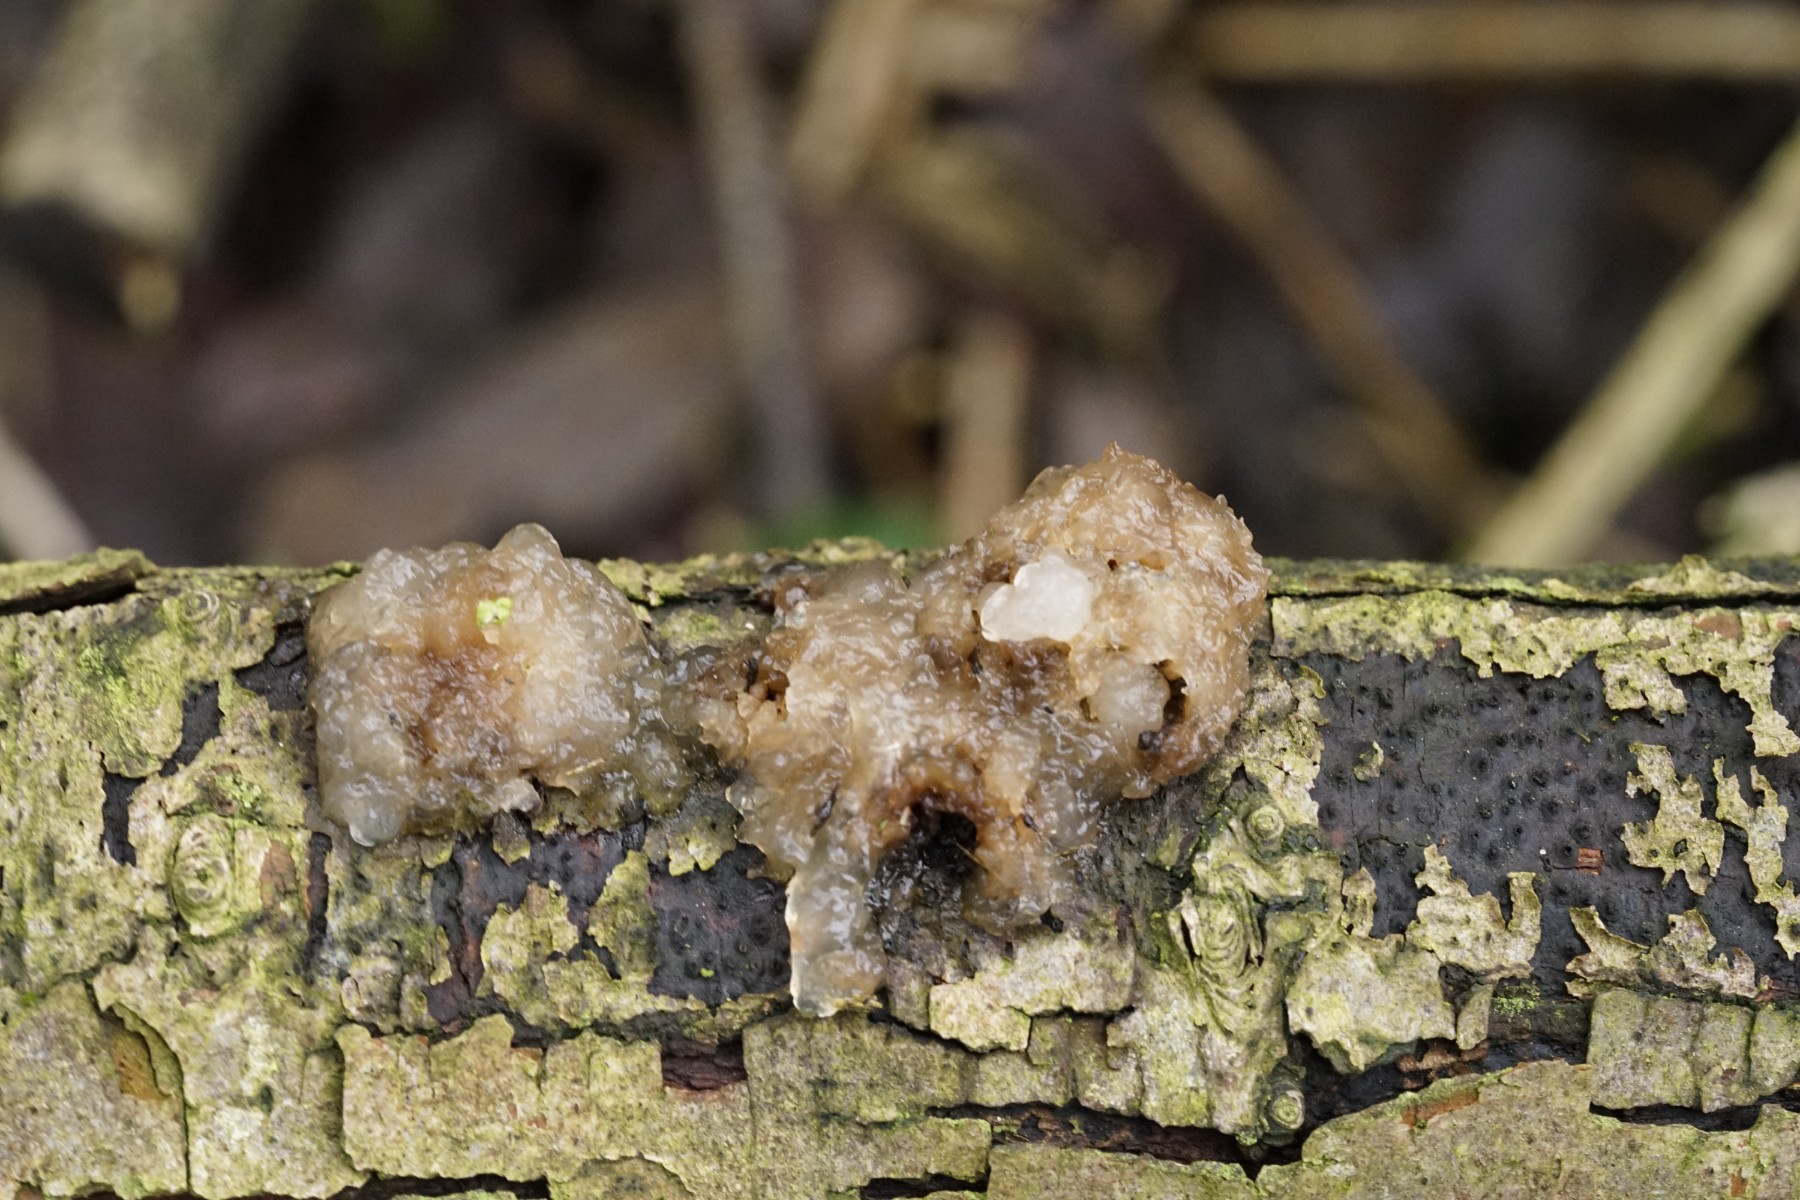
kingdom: Fungi
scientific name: Fungi
